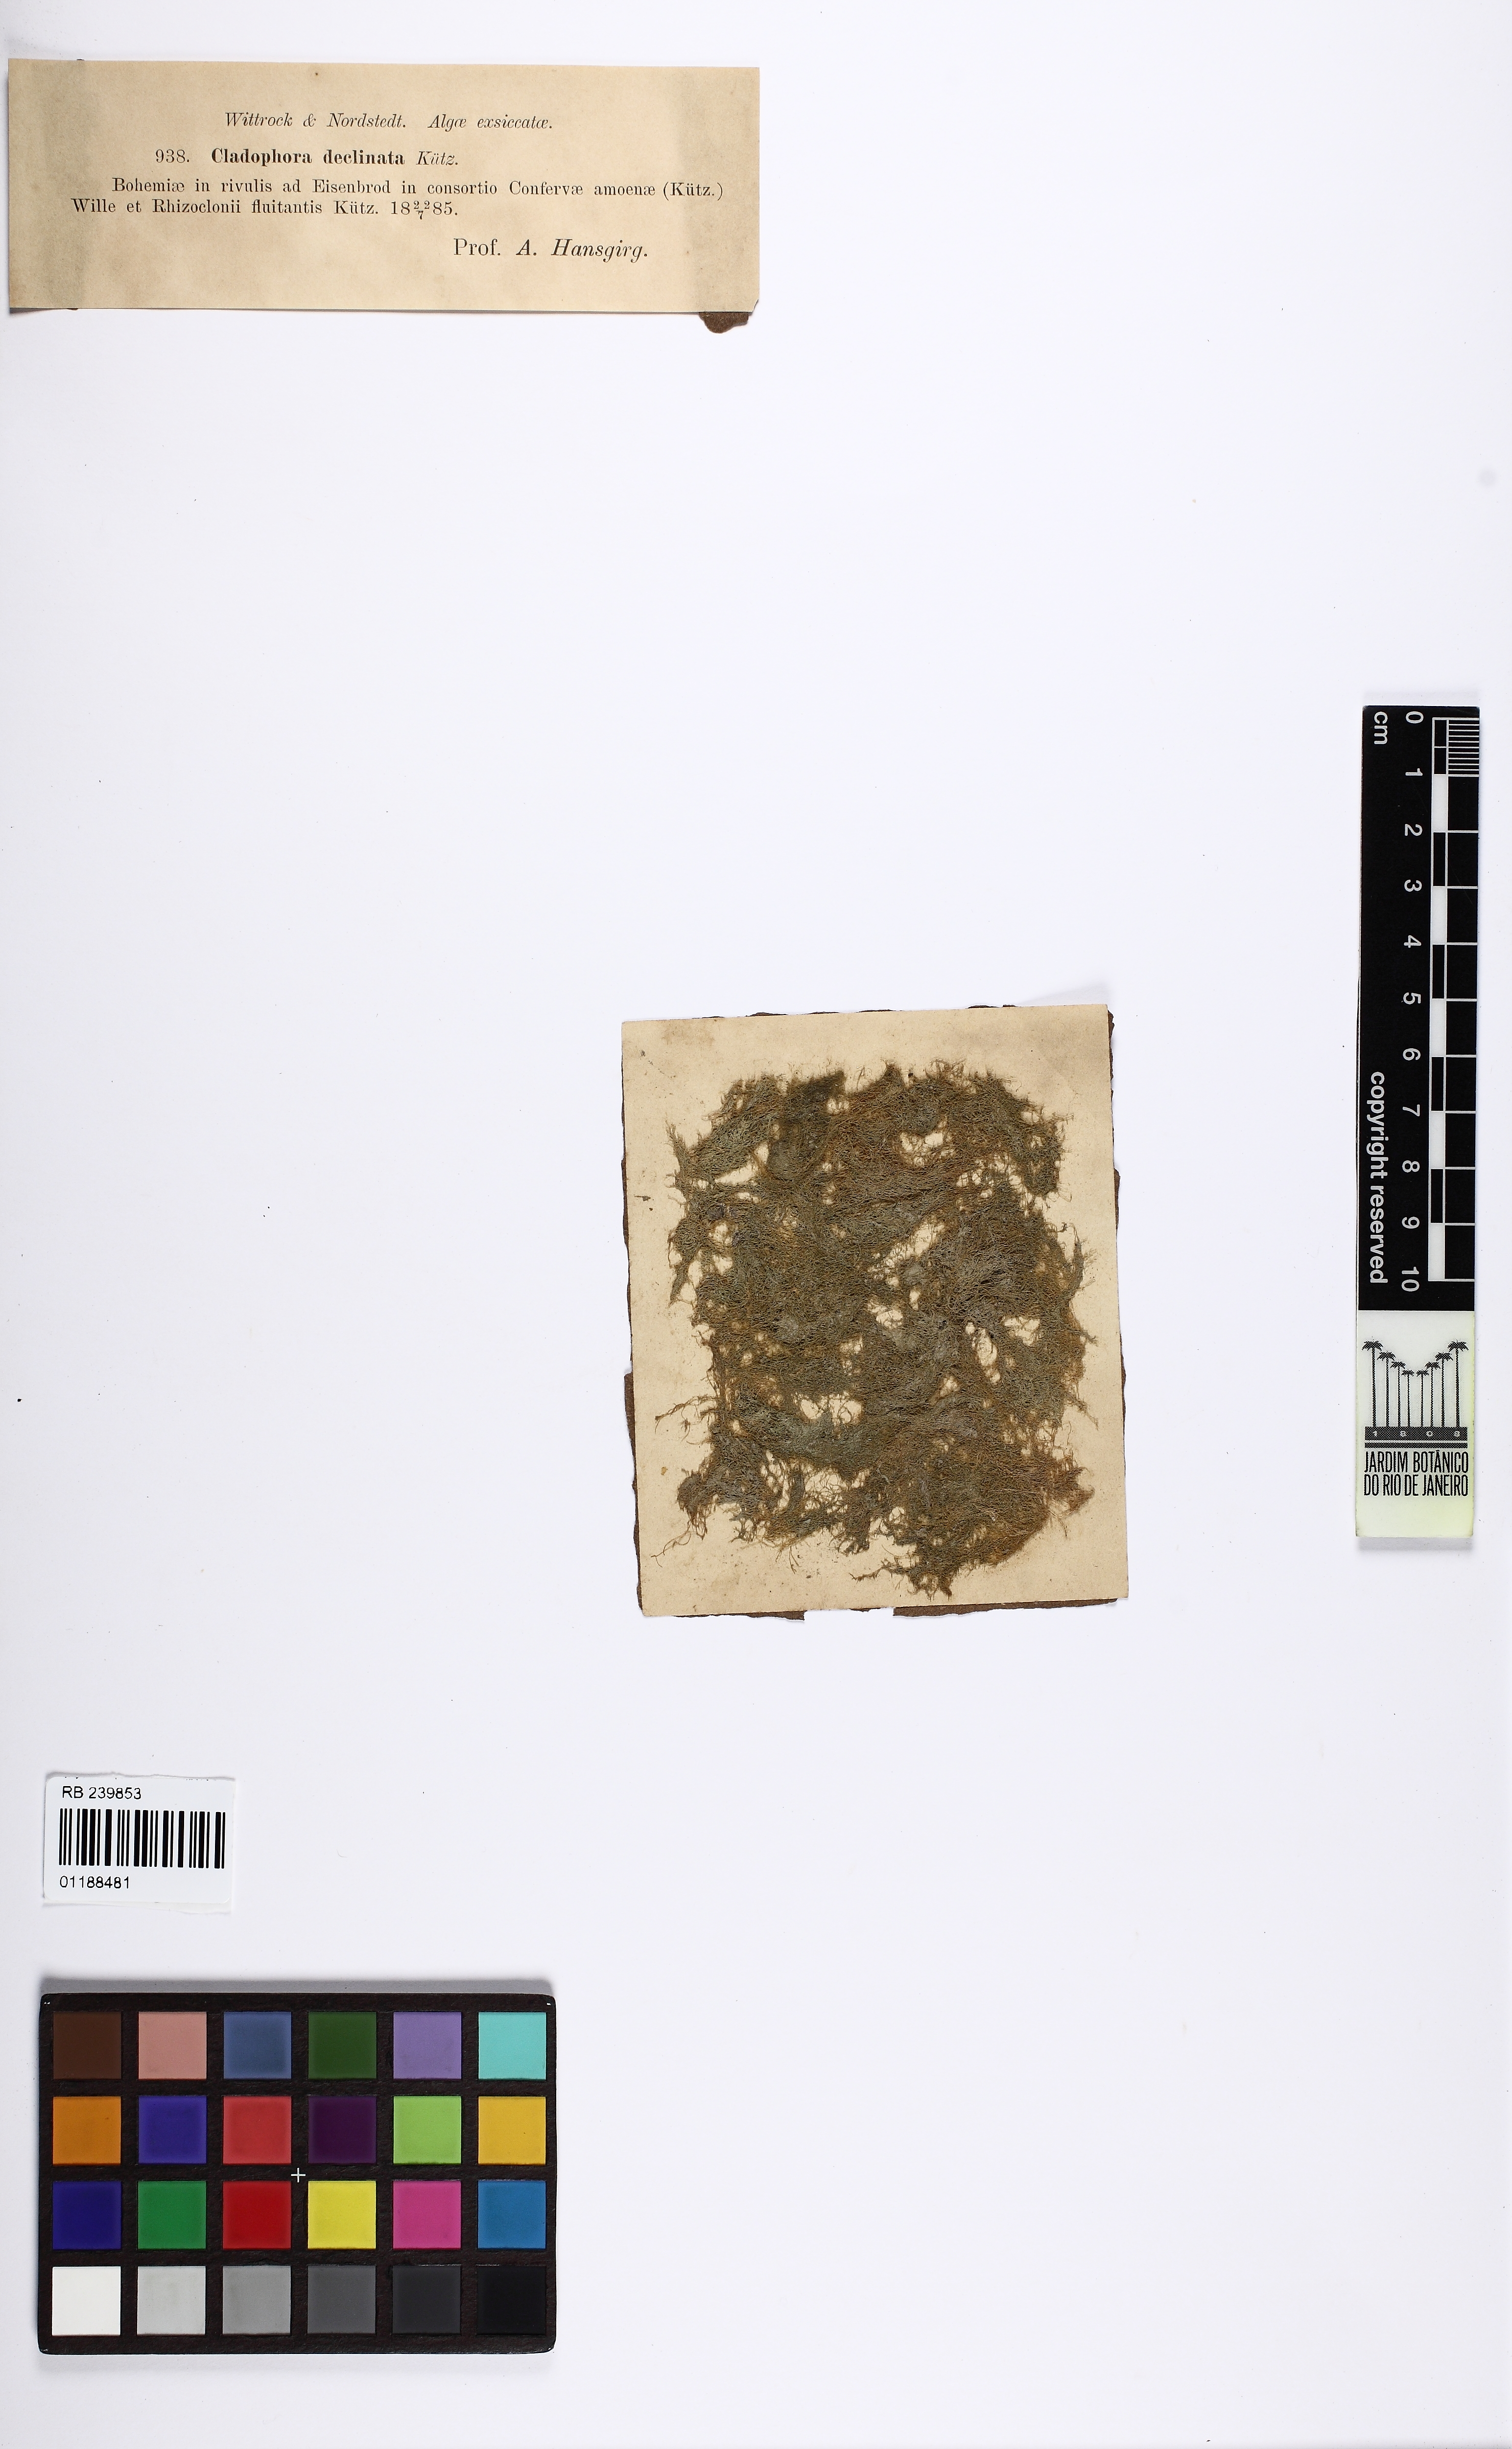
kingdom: Plantae
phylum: Chlorophyta
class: Ulvophyceae
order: Cladophorales
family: Cladophoraceae
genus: Cladophora
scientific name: Cladophora glomerata
